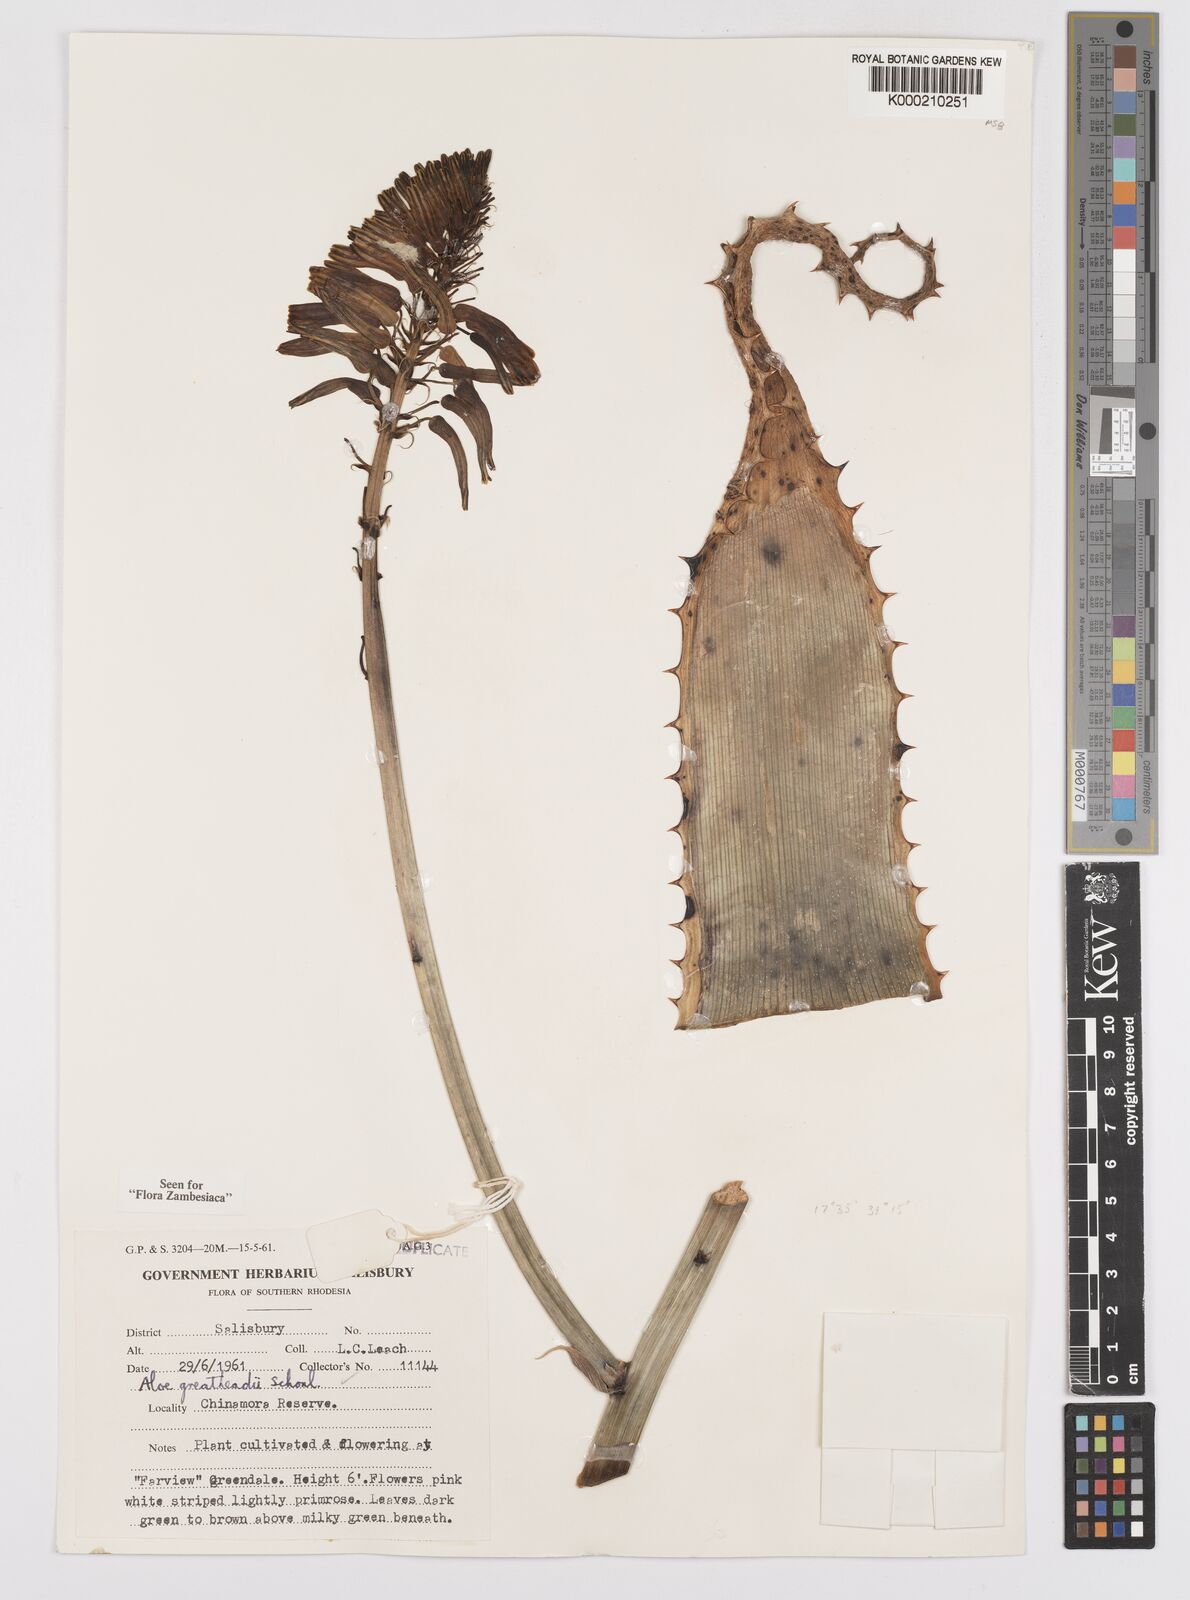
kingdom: Plantae
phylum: Tracheophyta
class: Liliopsida
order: Asparagales
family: Asphodelaceae
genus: Aloe
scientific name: Aloe greatheadii
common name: Greathead's aloe
